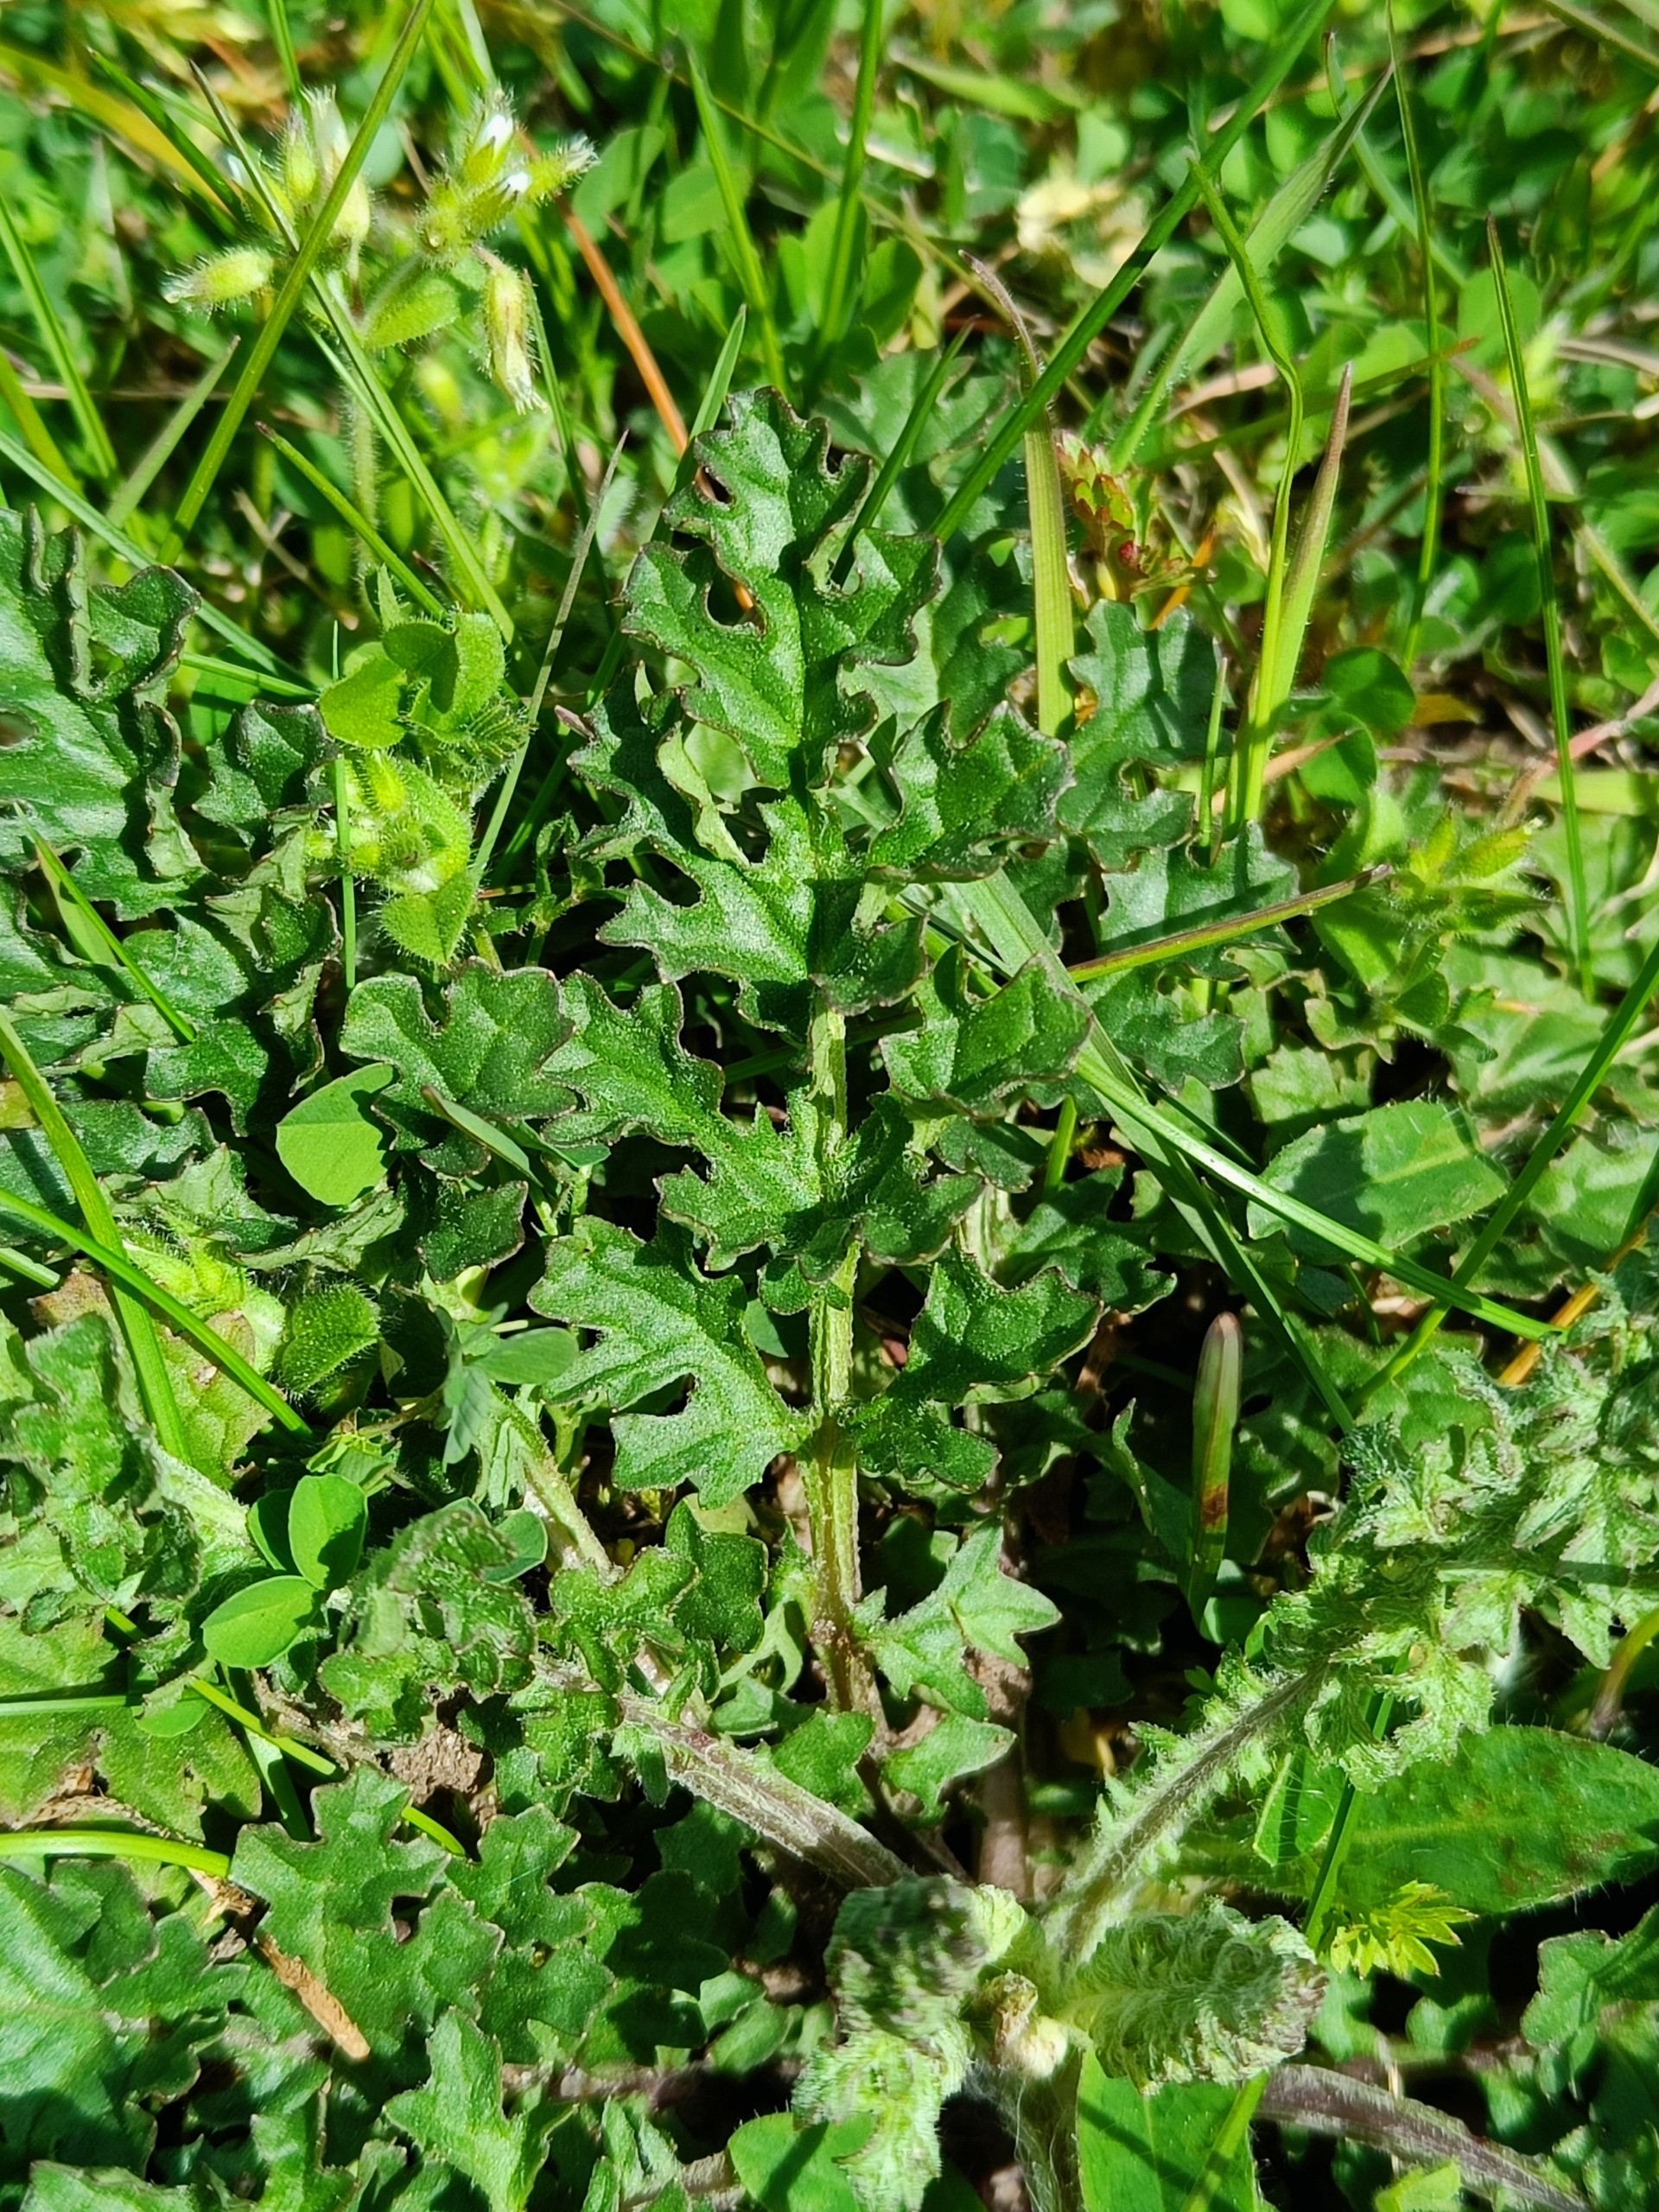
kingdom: Plantae
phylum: Tracheophyta
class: Magnoliopsida
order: Asterales
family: Asteraceae
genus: Jacobaea
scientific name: Jacobaea vulgaris
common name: Eng-brandbæger
